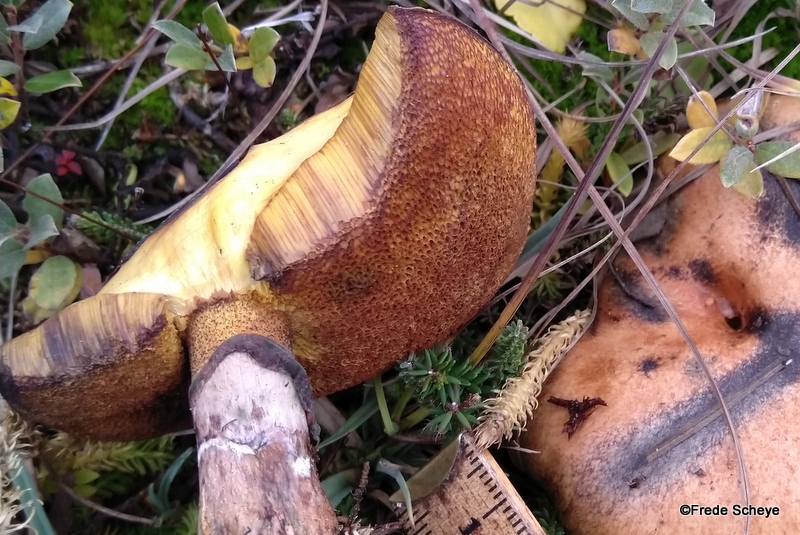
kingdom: Fungi
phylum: Basidiomycota
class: Agaricomycetes
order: Boletales
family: Suillaceae
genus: Suillus
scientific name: Suillus luteus
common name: brungul slimrørhat
